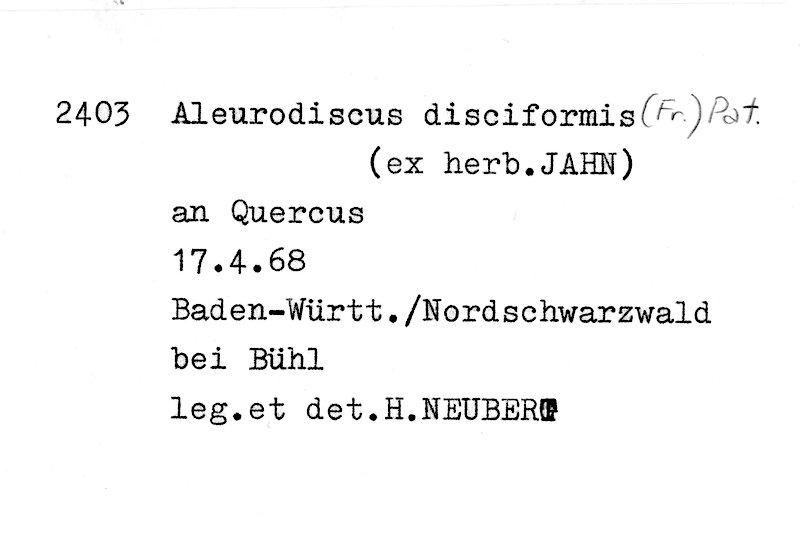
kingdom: Plantae
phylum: Tracheophyta
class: Magnoliopsida
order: Fagales
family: Fagaceae
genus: Quercus
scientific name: Quercus
